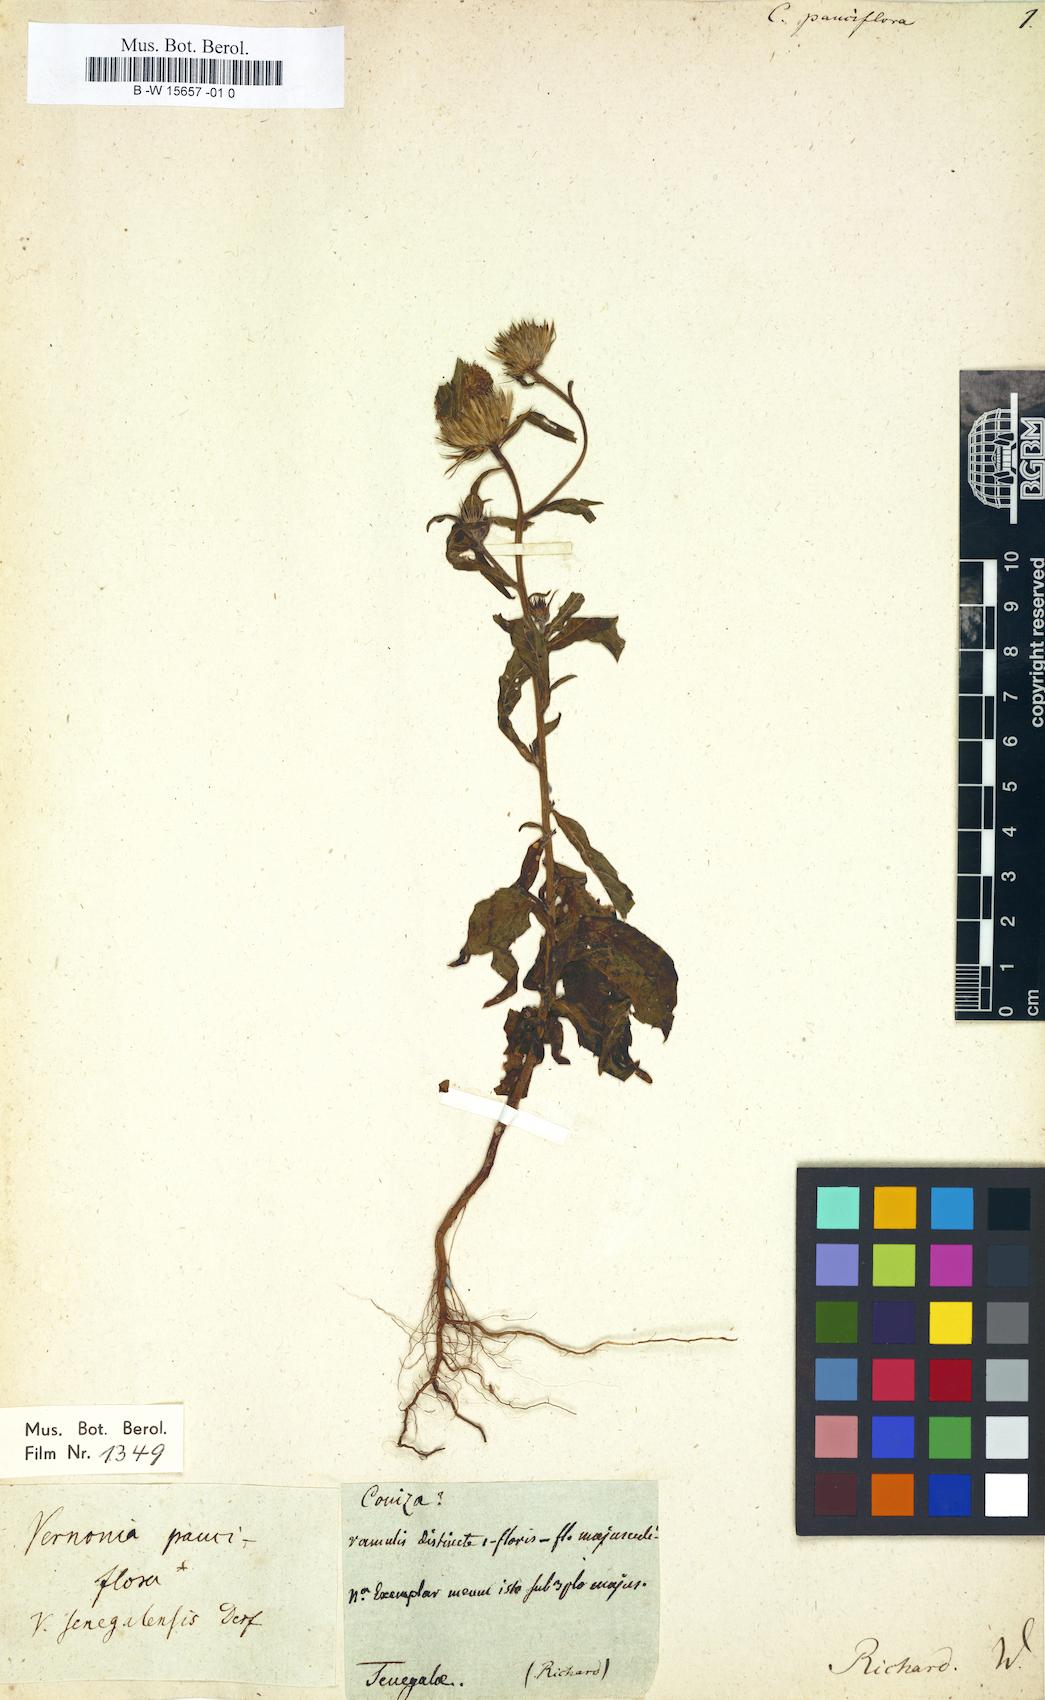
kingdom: Plantae
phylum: Tracheophyta
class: Magnoliopsida
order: Asterales
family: Asteraceae
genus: Vernonia
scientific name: Vernonia galamensis
